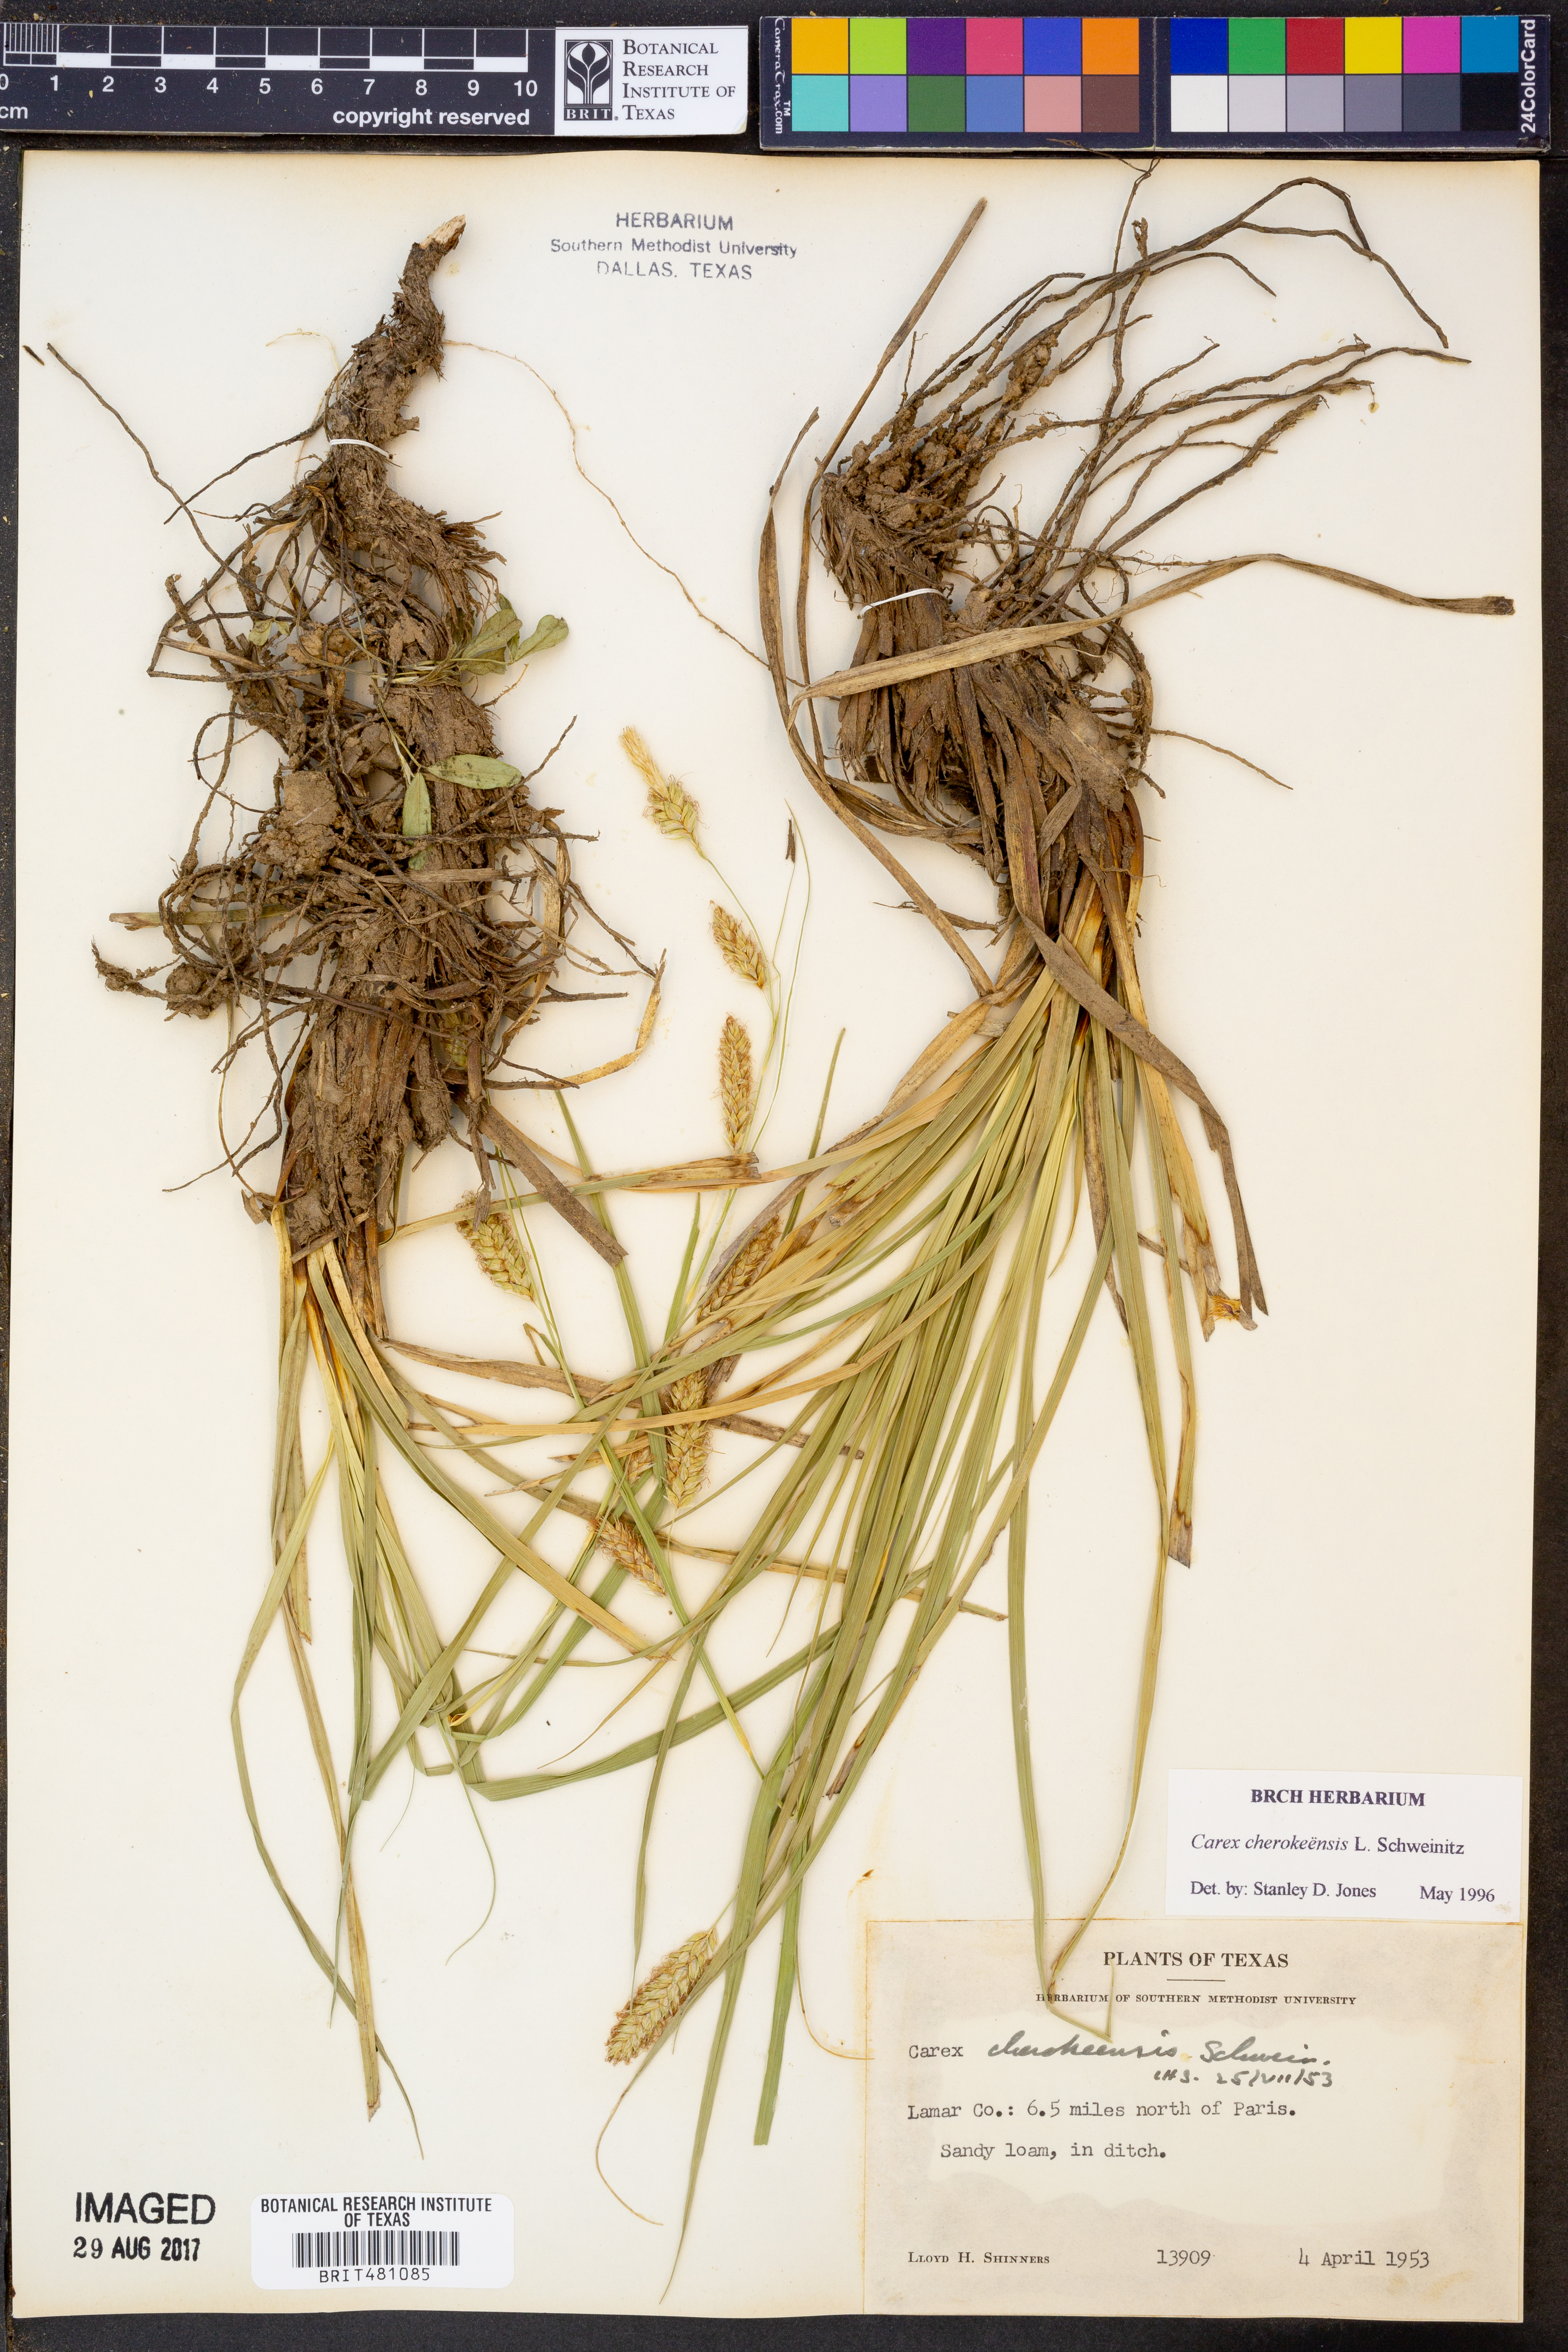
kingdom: Plantae
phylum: Tracheophyta
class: Liliopsida
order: Poales
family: Cyperaceae
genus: Carex
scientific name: Carex cherokeensis
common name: Cherokee sedge
